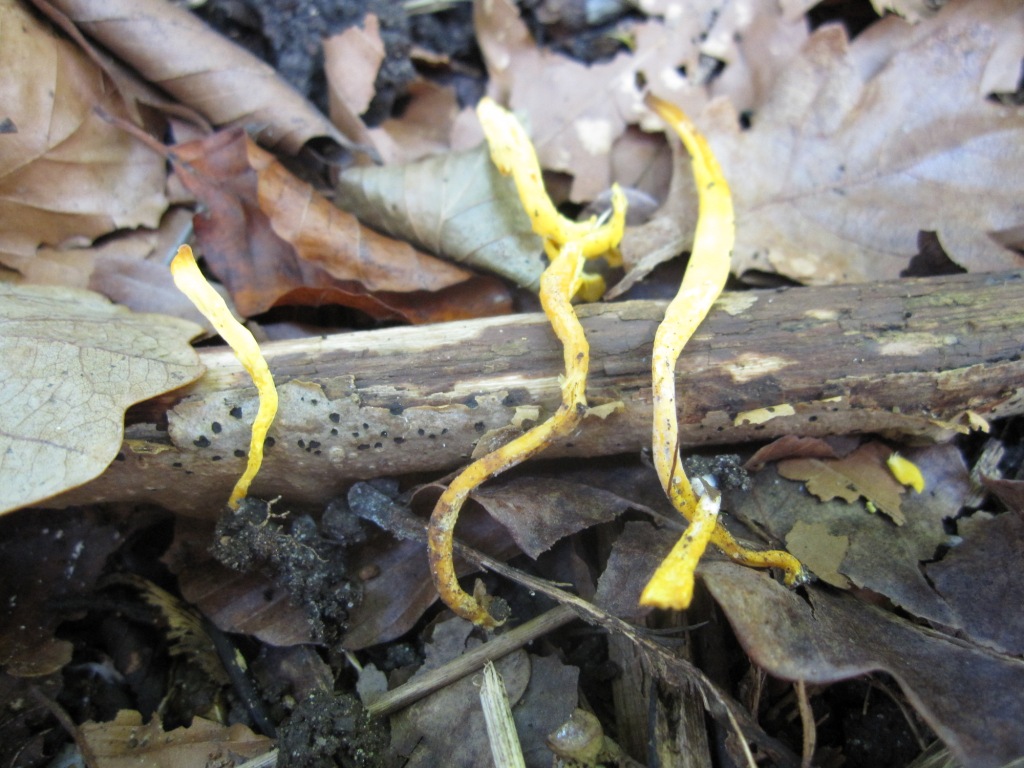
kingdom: Fungi
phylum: Basidiomycota
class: Agaricomycetes
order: Agaricales
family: Clavariaceae
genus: Clavulinopsis
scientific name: Clavulinopsis helvola
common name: orangegul køllesvamp
